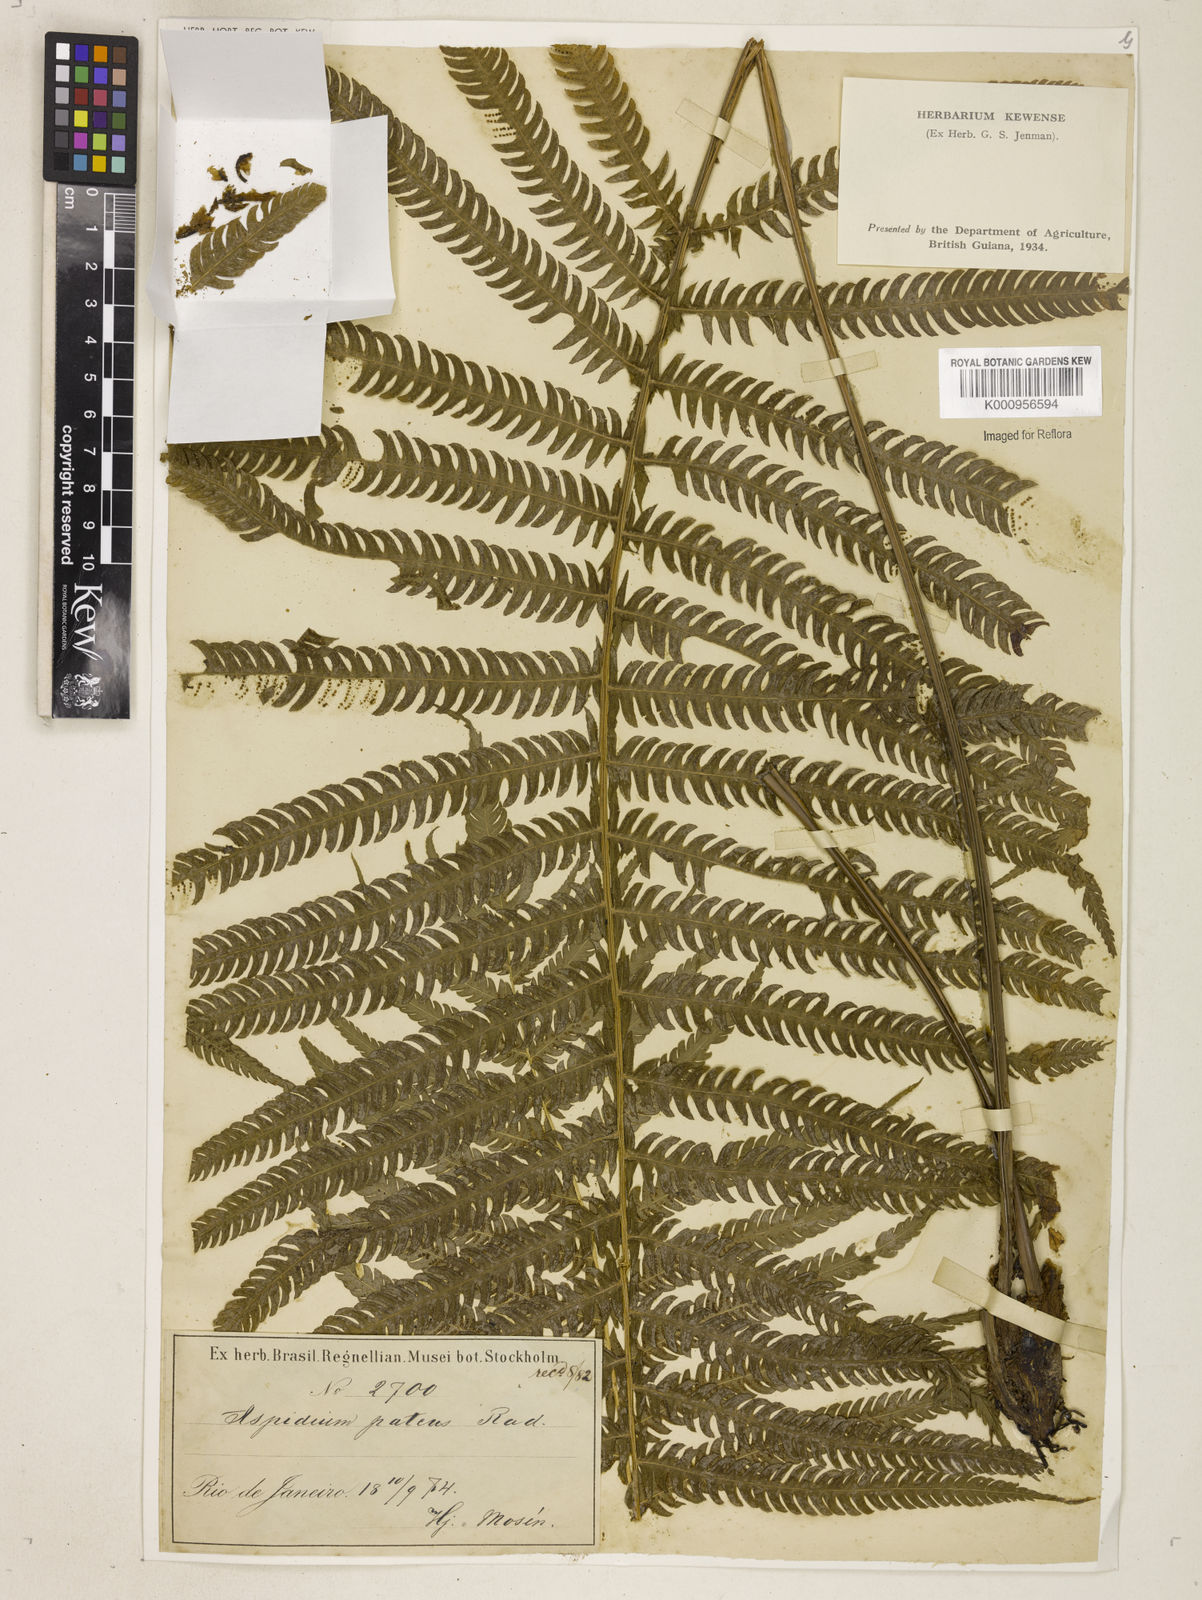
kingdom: Plantae
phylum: Tracheophyta
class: Polypodiopsida
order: Polypodiales
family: Thelypteridaceae
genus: Pelazoneuron
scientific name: Pelazoneuron patens
